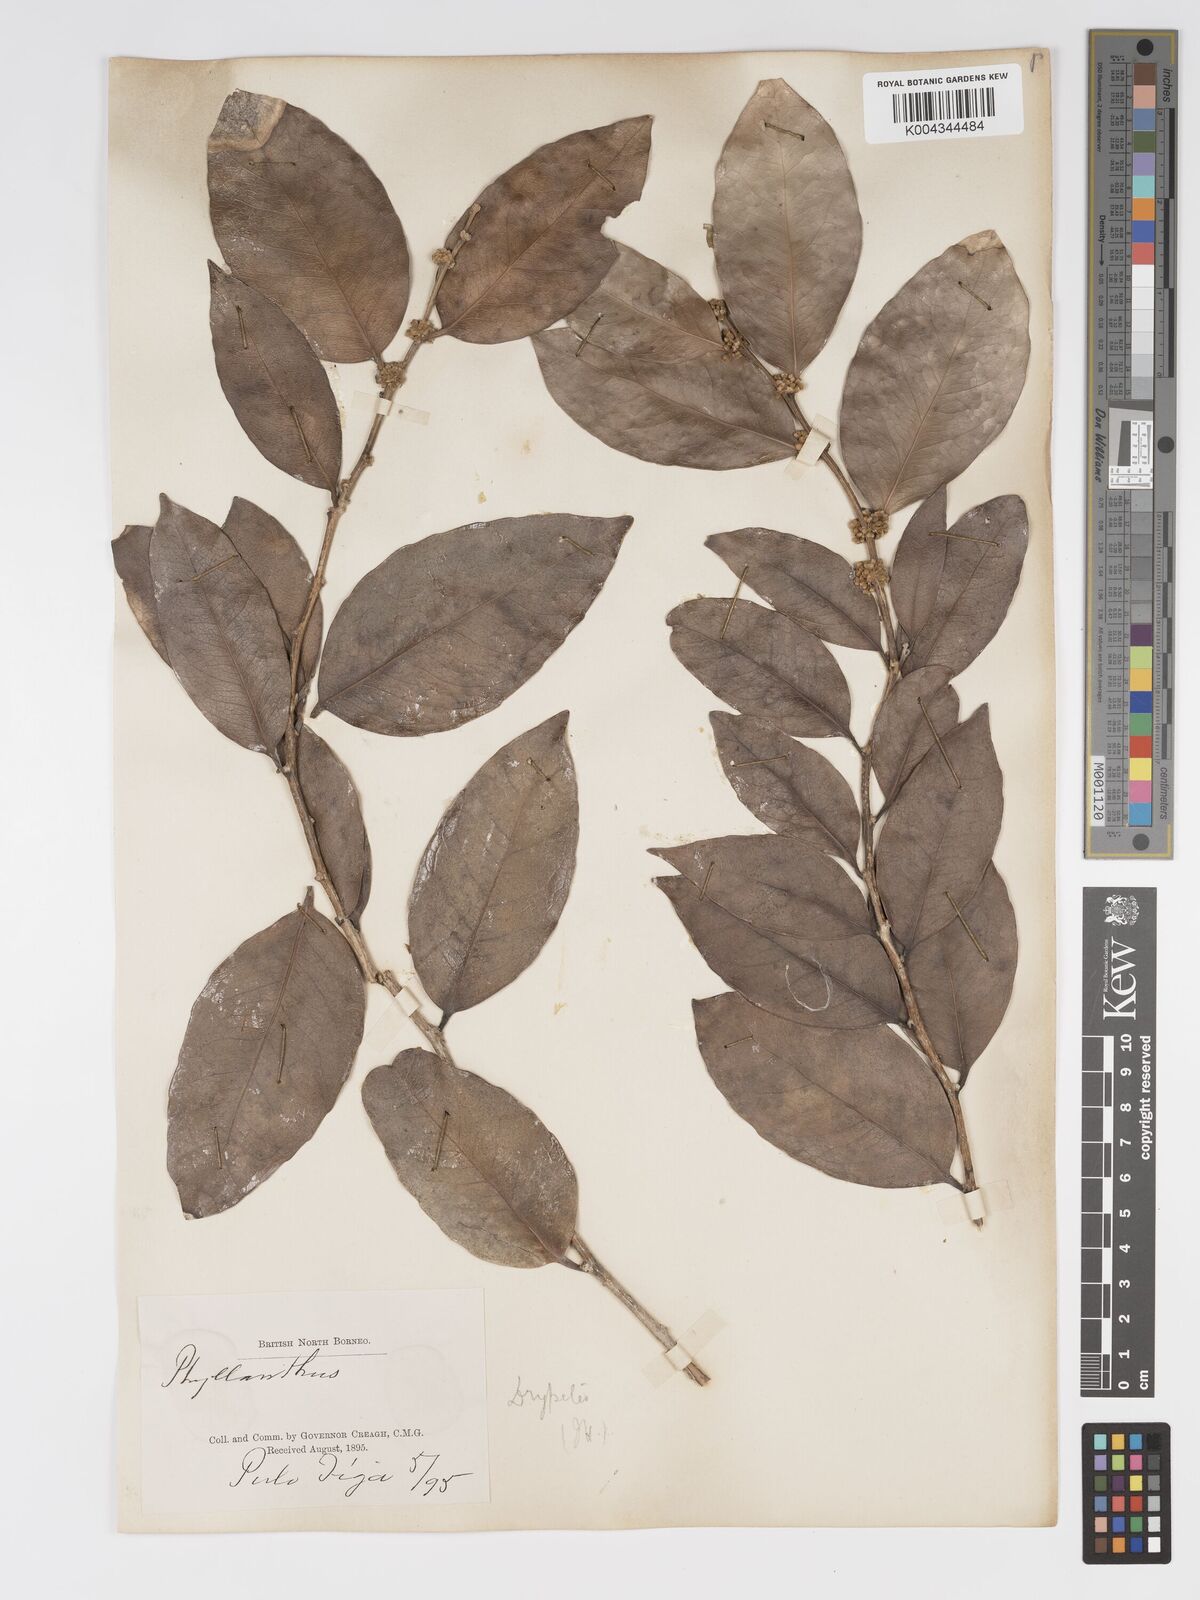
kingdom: Plantae
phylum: Tracheophyta
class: Magnoliopsida
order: Malpighiales
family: Putranjivaceae
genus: Drypetes
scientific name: Drypetes littoralis
